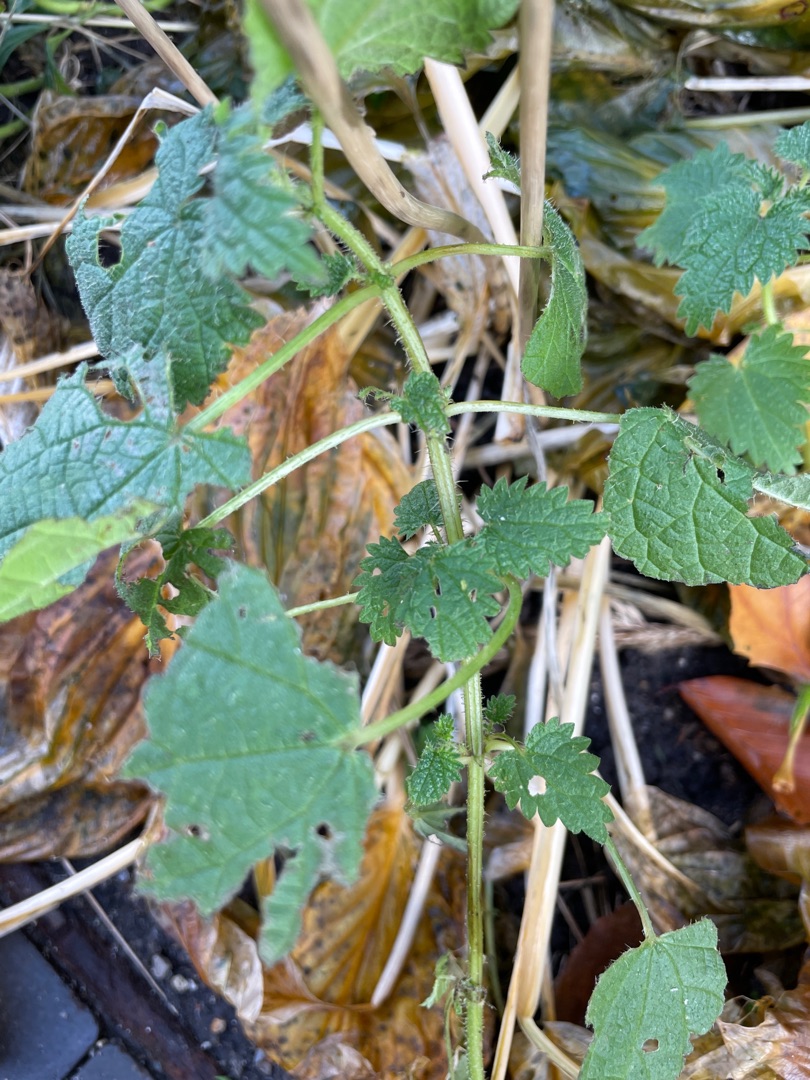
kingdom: Plantae
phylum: Tracheophyta
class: Magnoliopsida
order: Rosales
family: Urticaceae
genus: Urtica
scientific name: Urtica dioica
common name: Stor nælde
